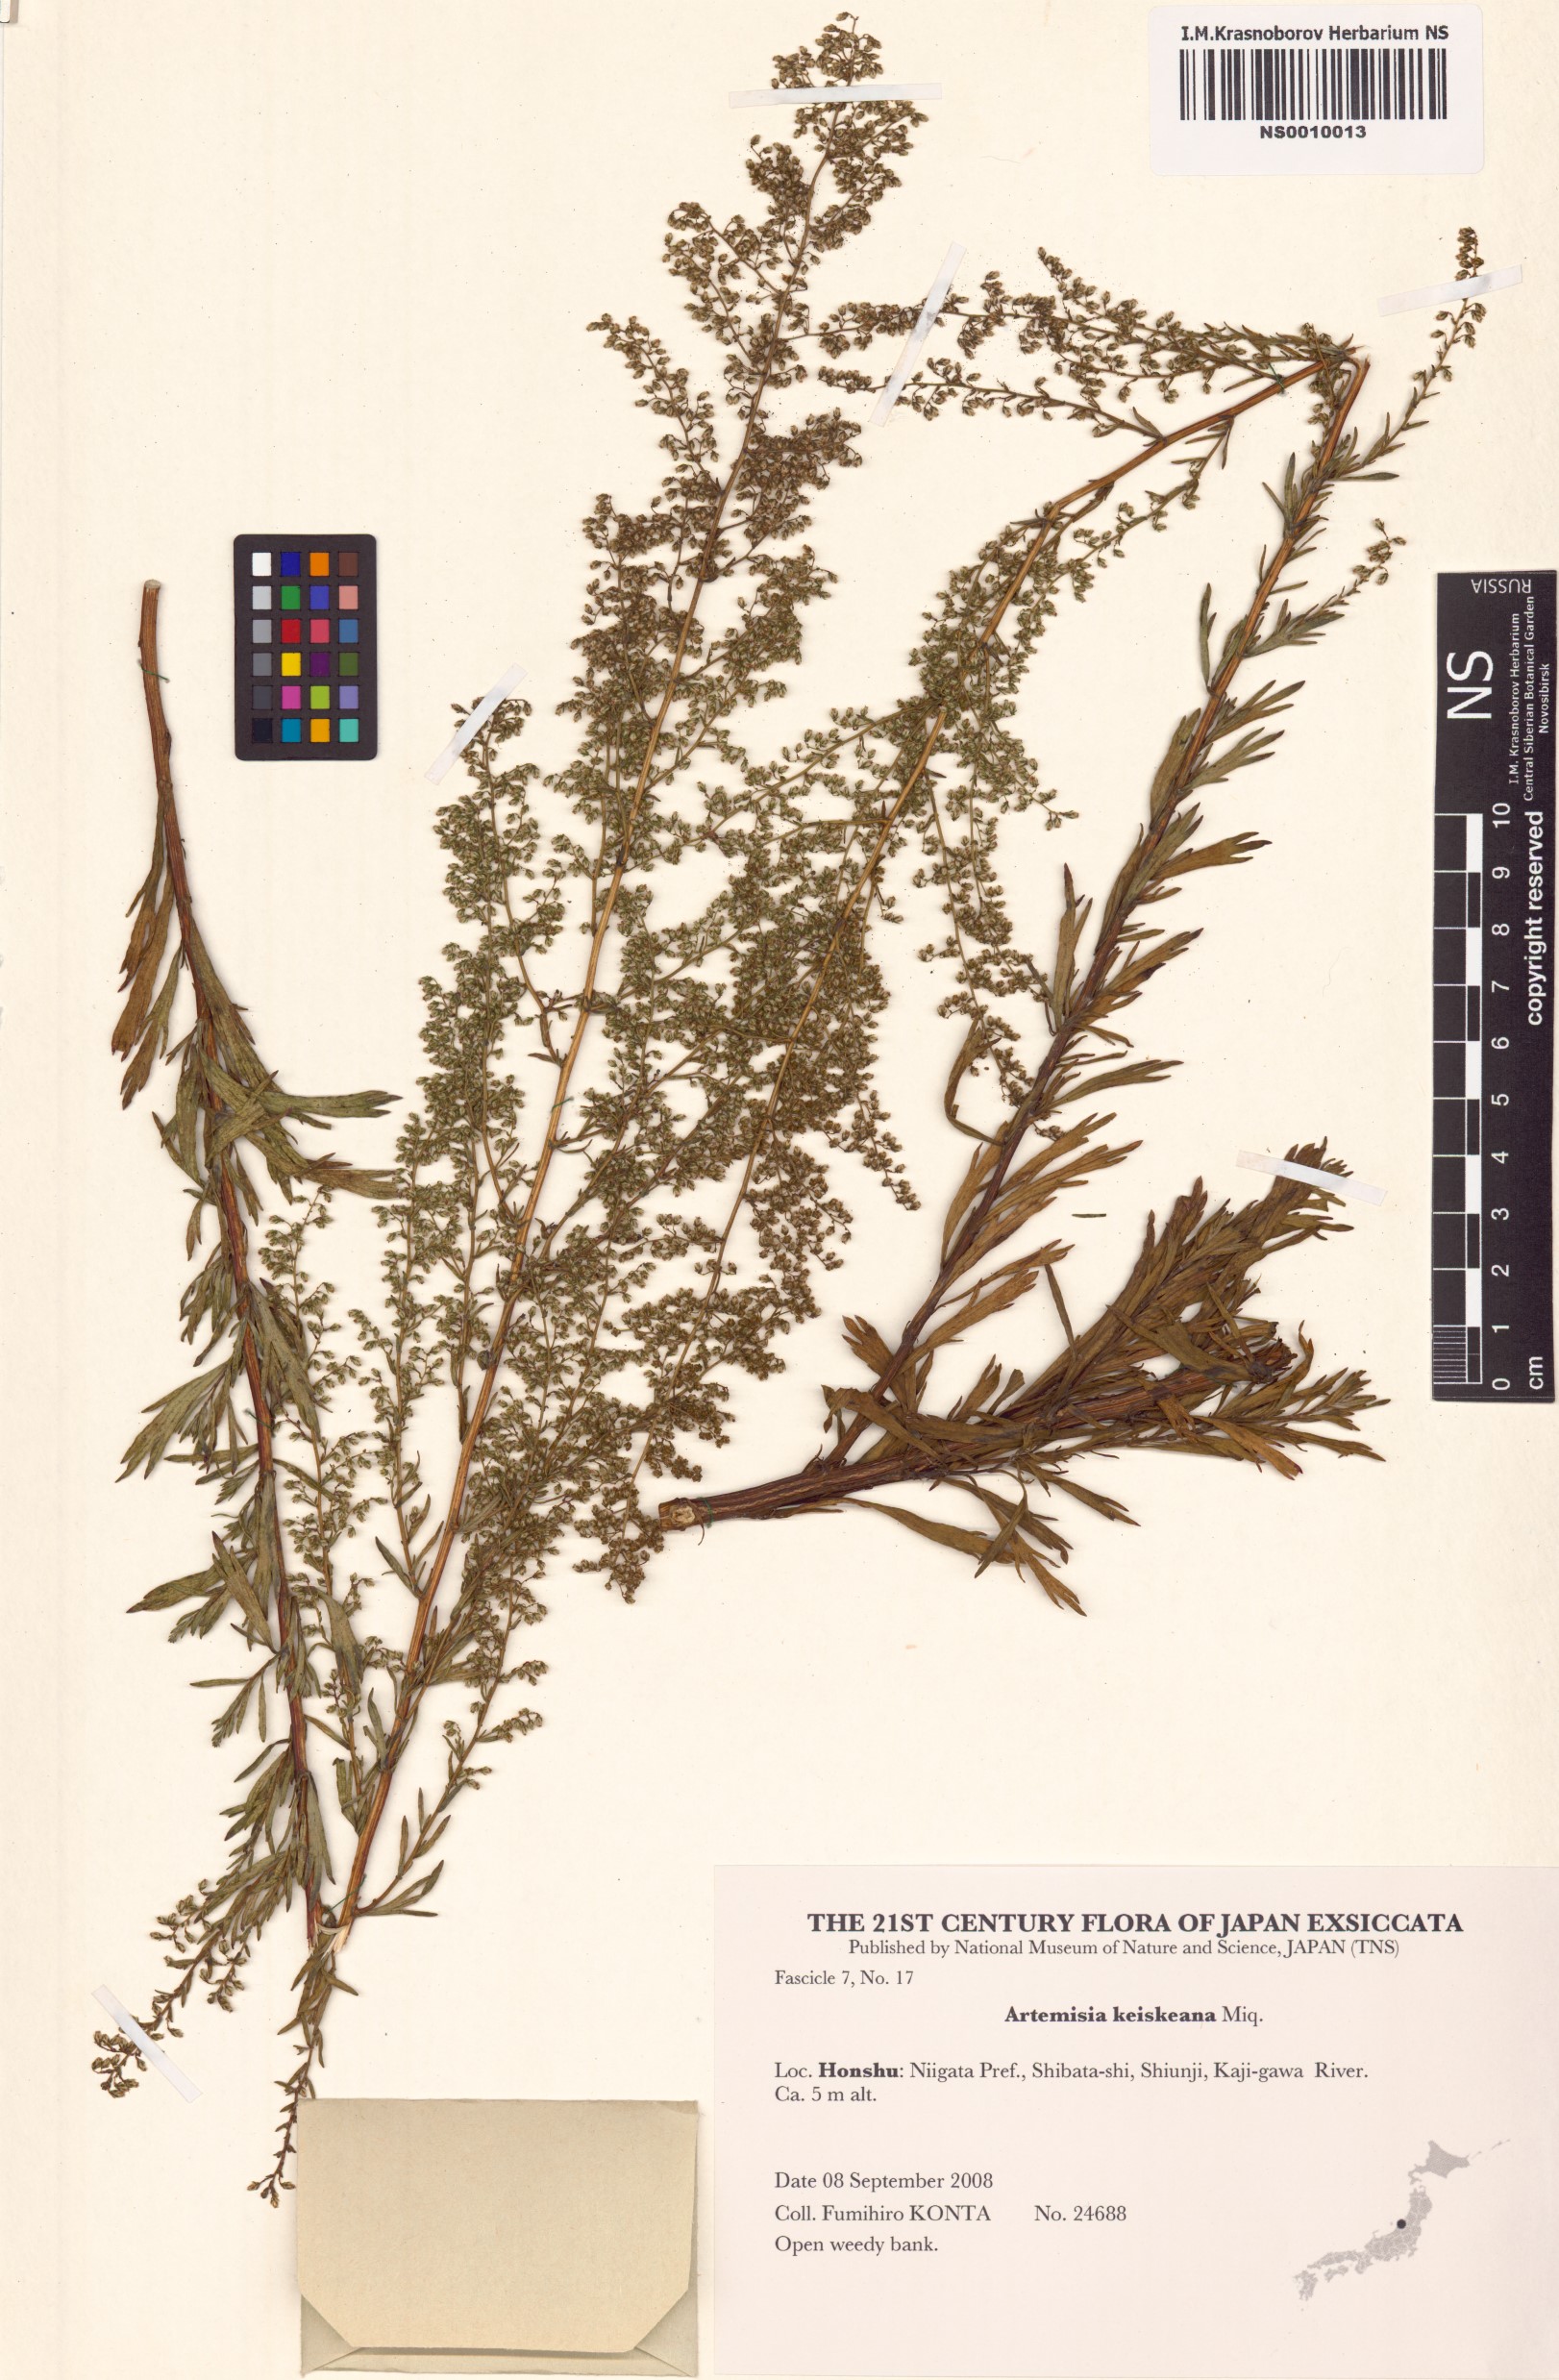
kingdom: Plantae
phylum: Tracheophyta
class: Magnoliopsida
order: Asterales
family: Asteraceae
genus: Artemisia
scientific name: Artemisia keiskeana
